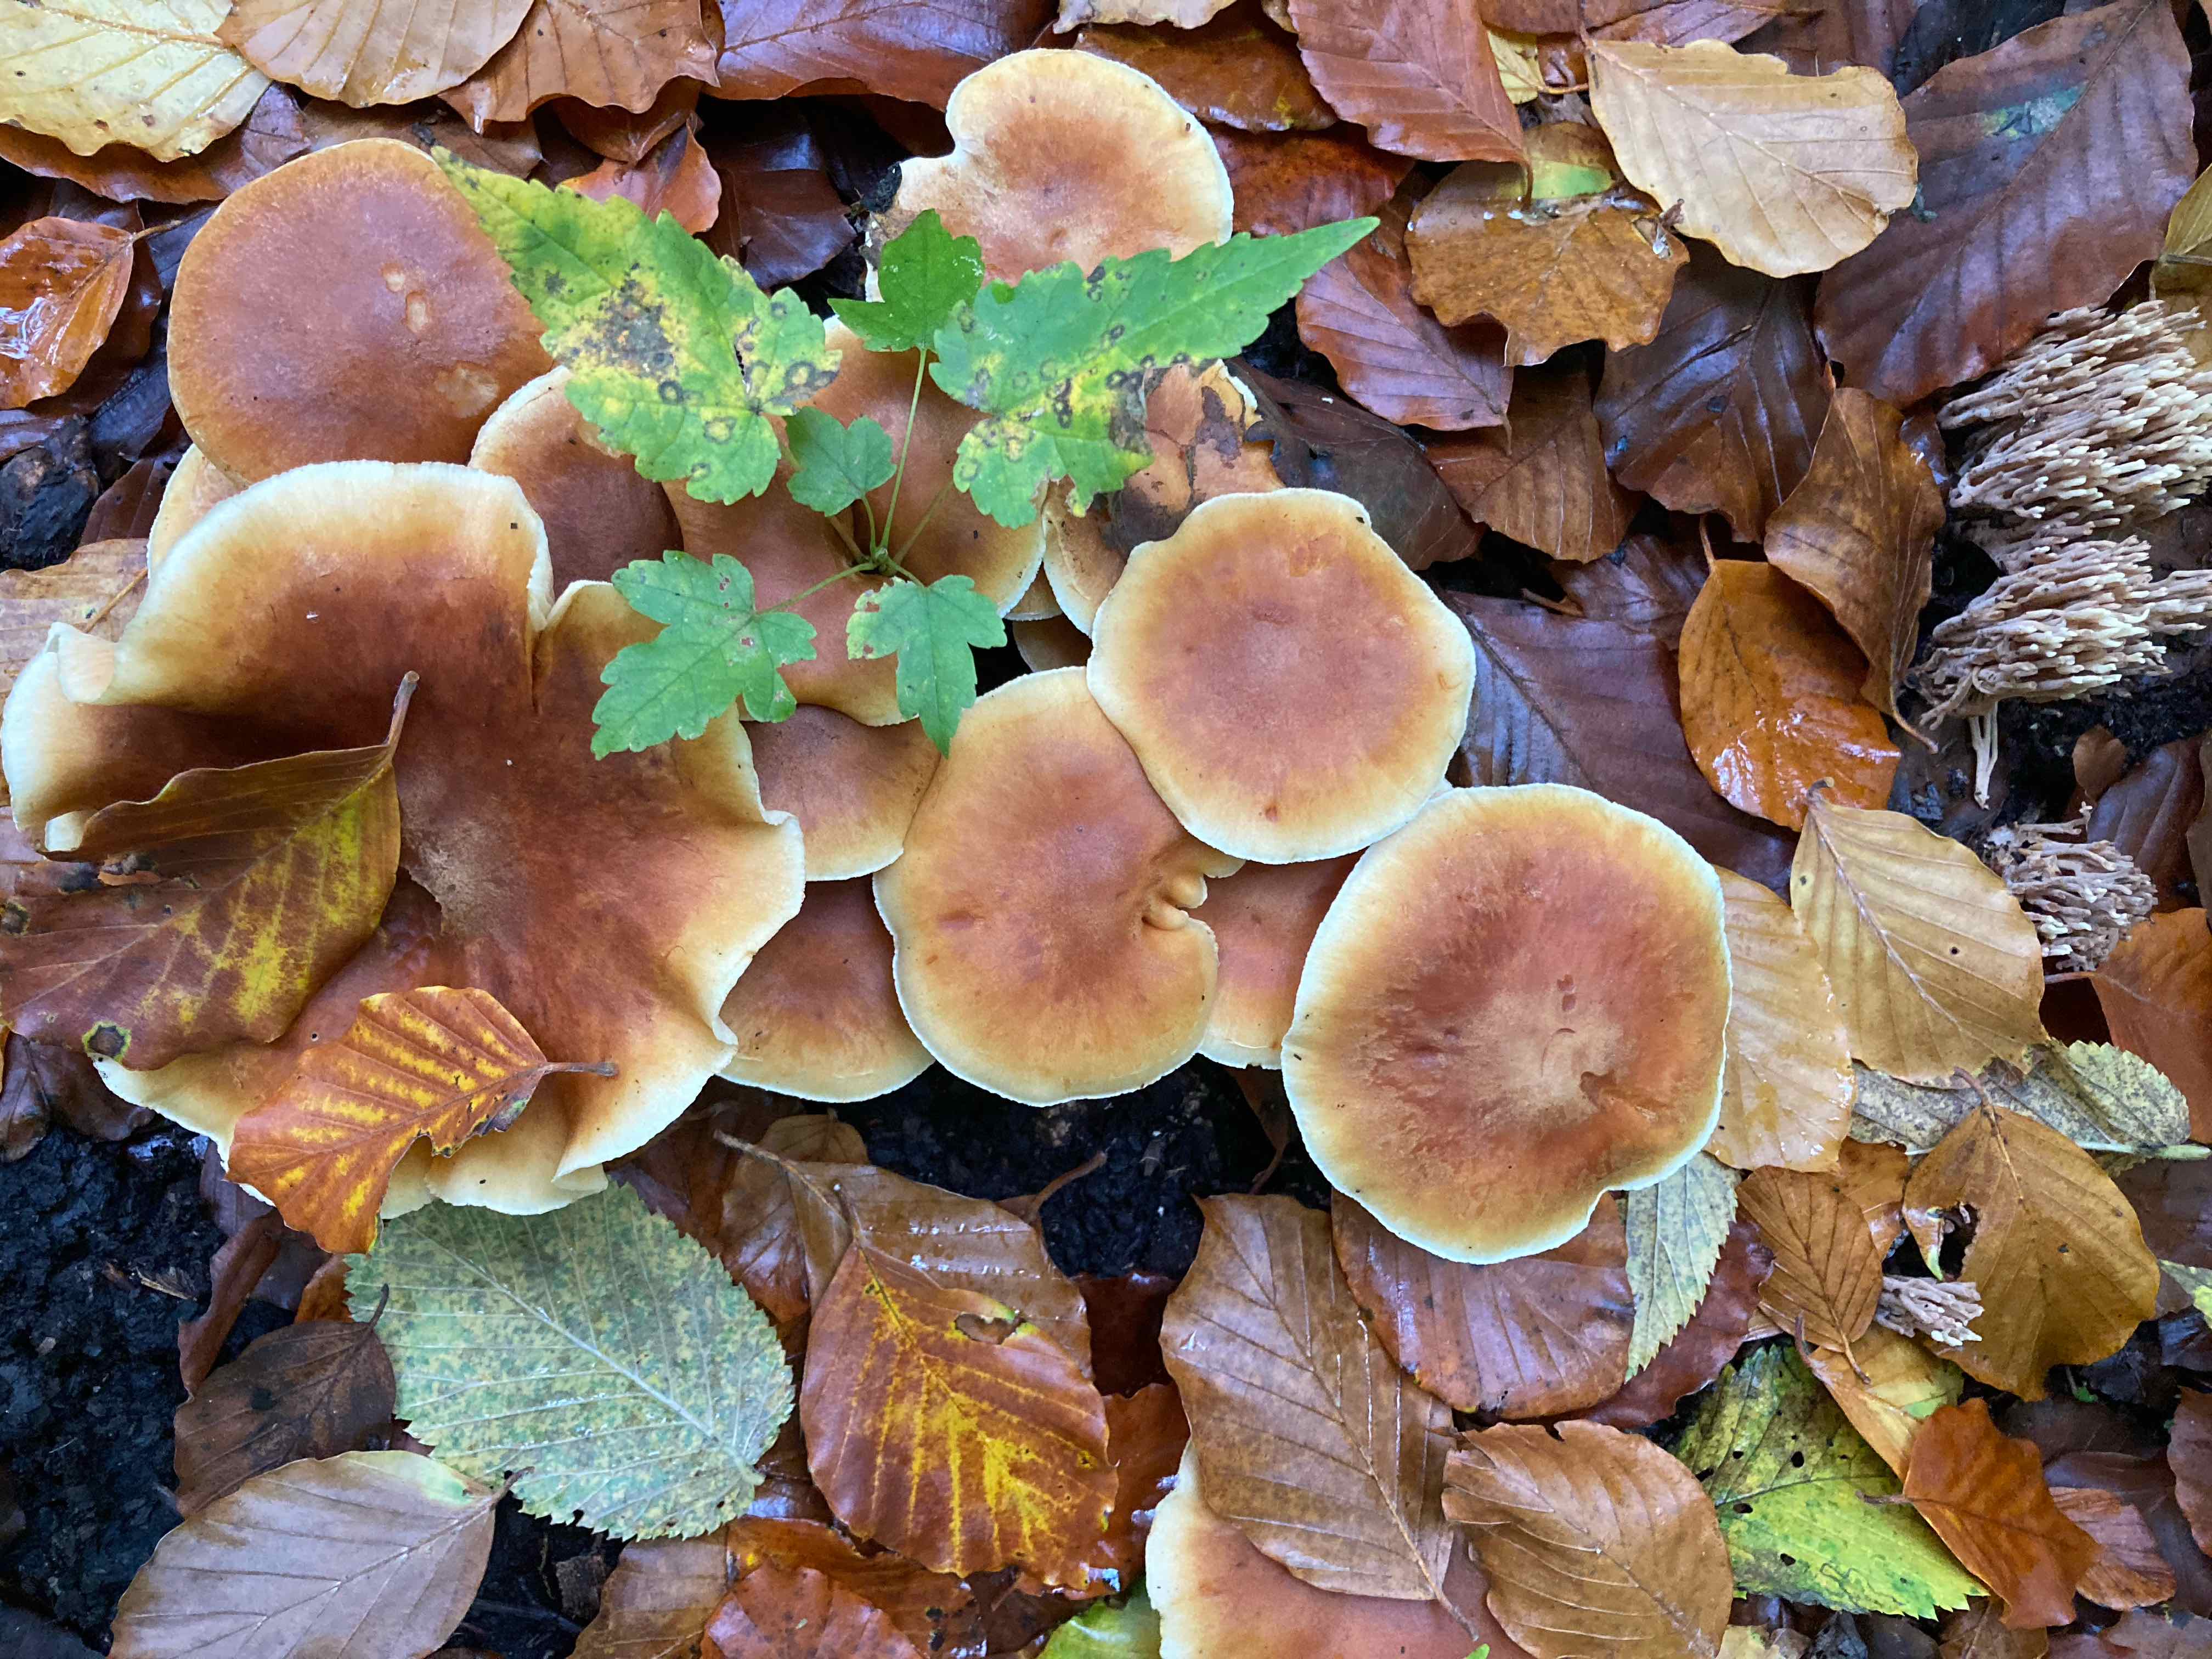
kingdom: Fungi
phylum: Basidiomycota
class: Agaricomycetes
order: Agaricales
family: Hymenogastraceae
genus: Gymnopilus
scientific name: Gymnopilus penetrans
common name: plettet flammehat
